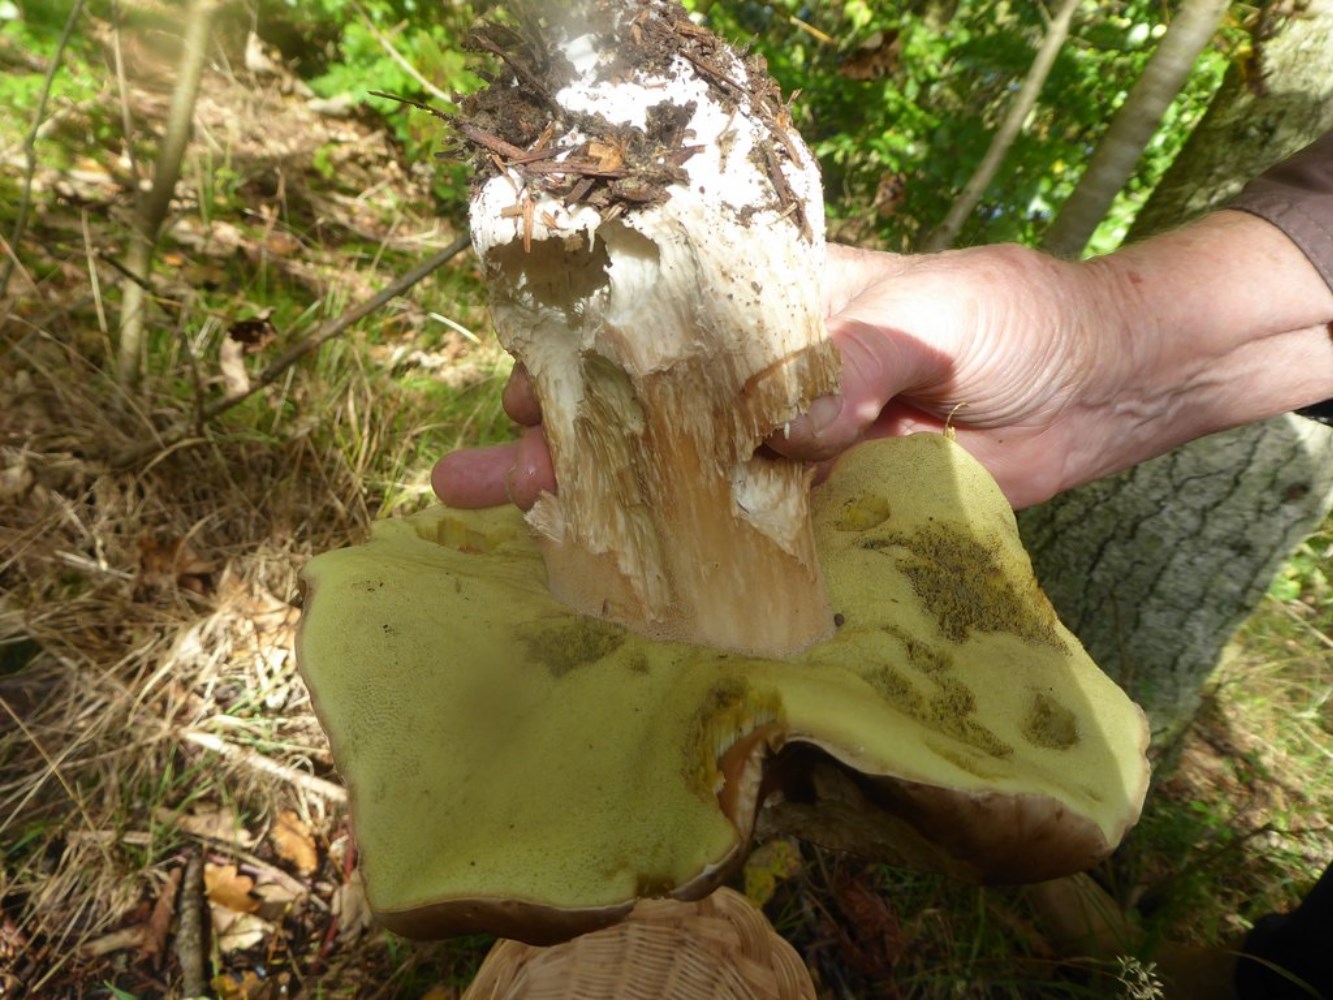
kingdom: Fungi
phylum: Basidiomycota
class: Agaricomycetes
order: Boletales
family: Boletaceae
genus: Boletus
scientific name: Boletus edulis
